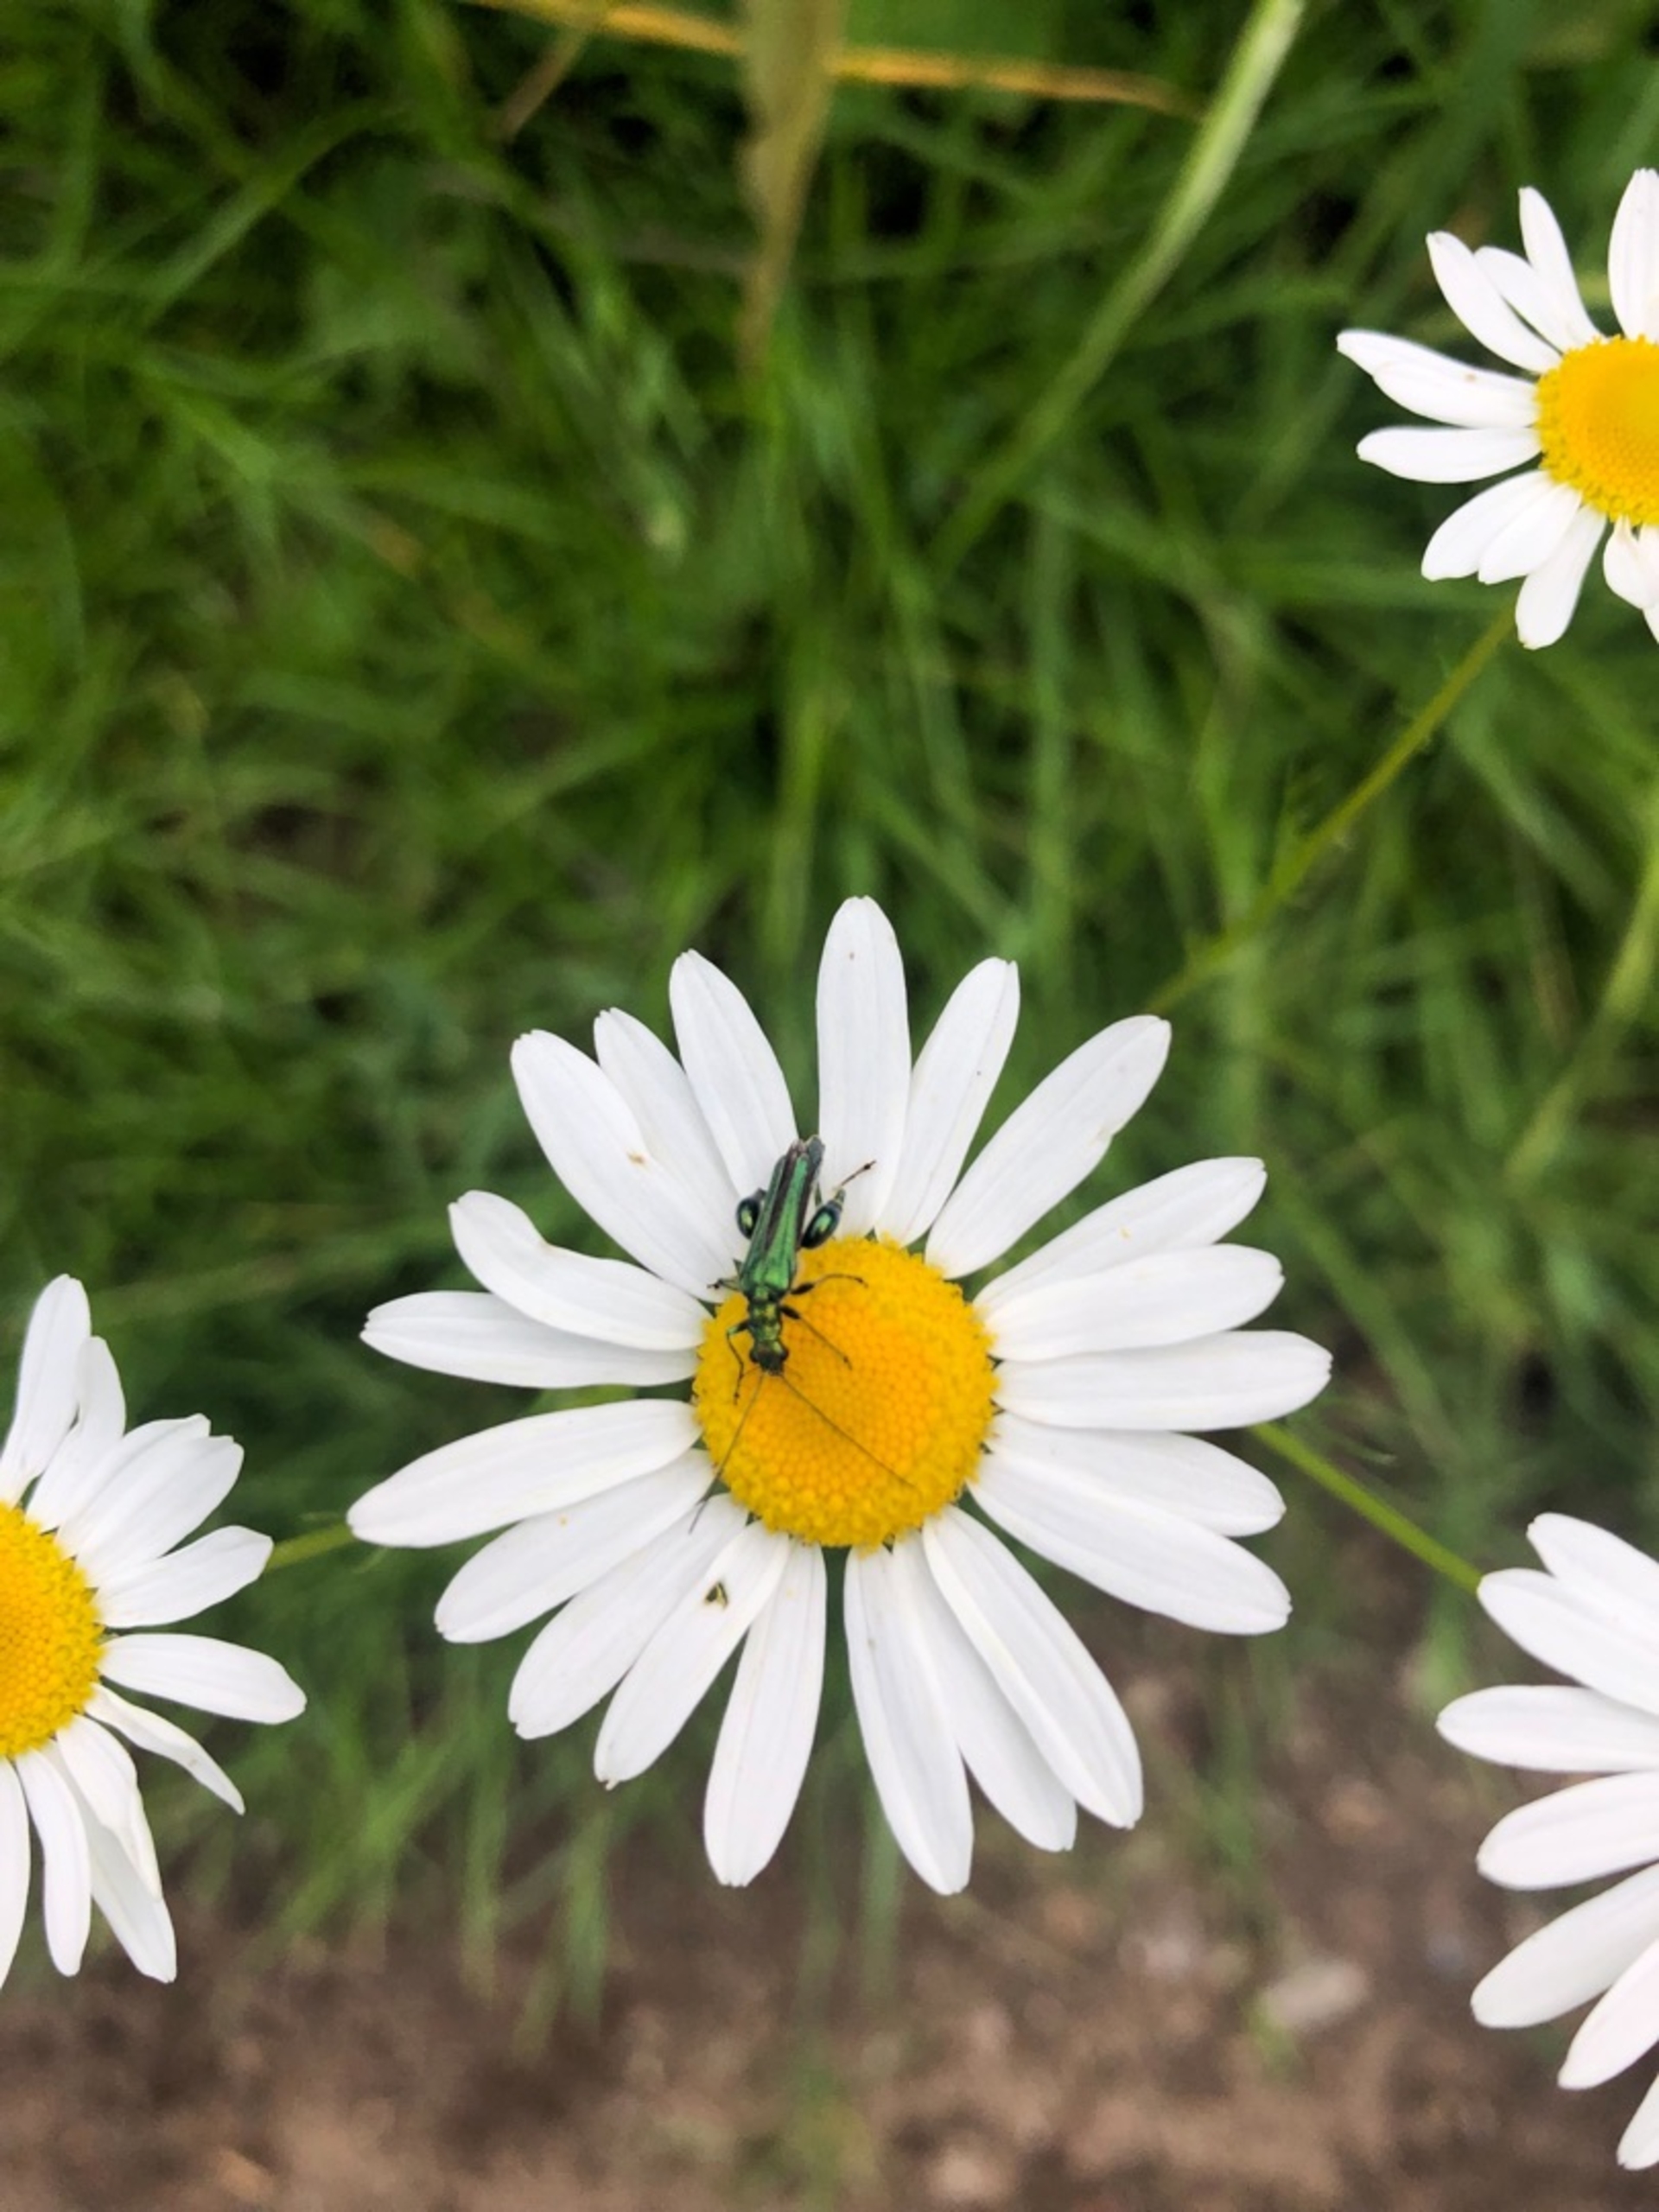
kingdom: Animalia
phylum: Arthropoda
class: Insecta
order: Coleoptera
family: Oedemeridae
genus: Oedemera
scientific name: Oedemera nobilis
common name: Tyklårssolbille
